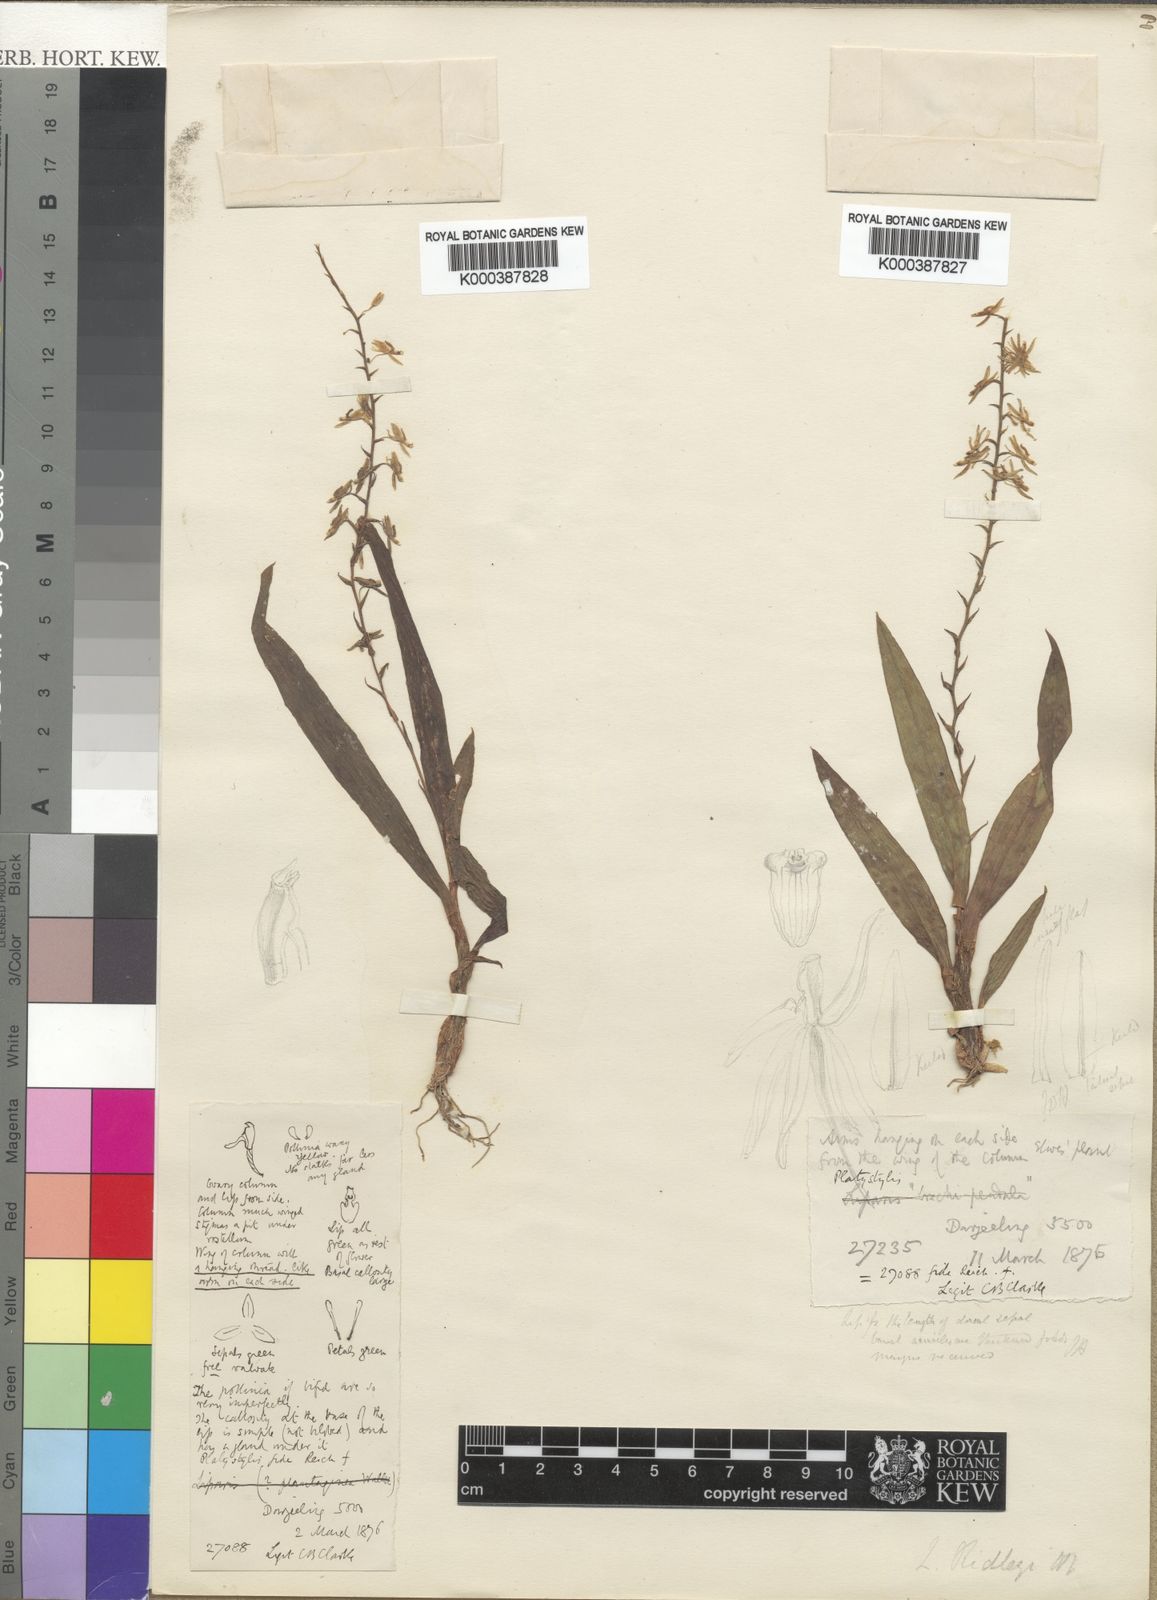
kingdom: Plantae
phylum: Tracheophyta
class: Liliopsida
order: Asparagales
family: Orchidaceae
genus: Liparis
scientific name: Liparis resupinata
